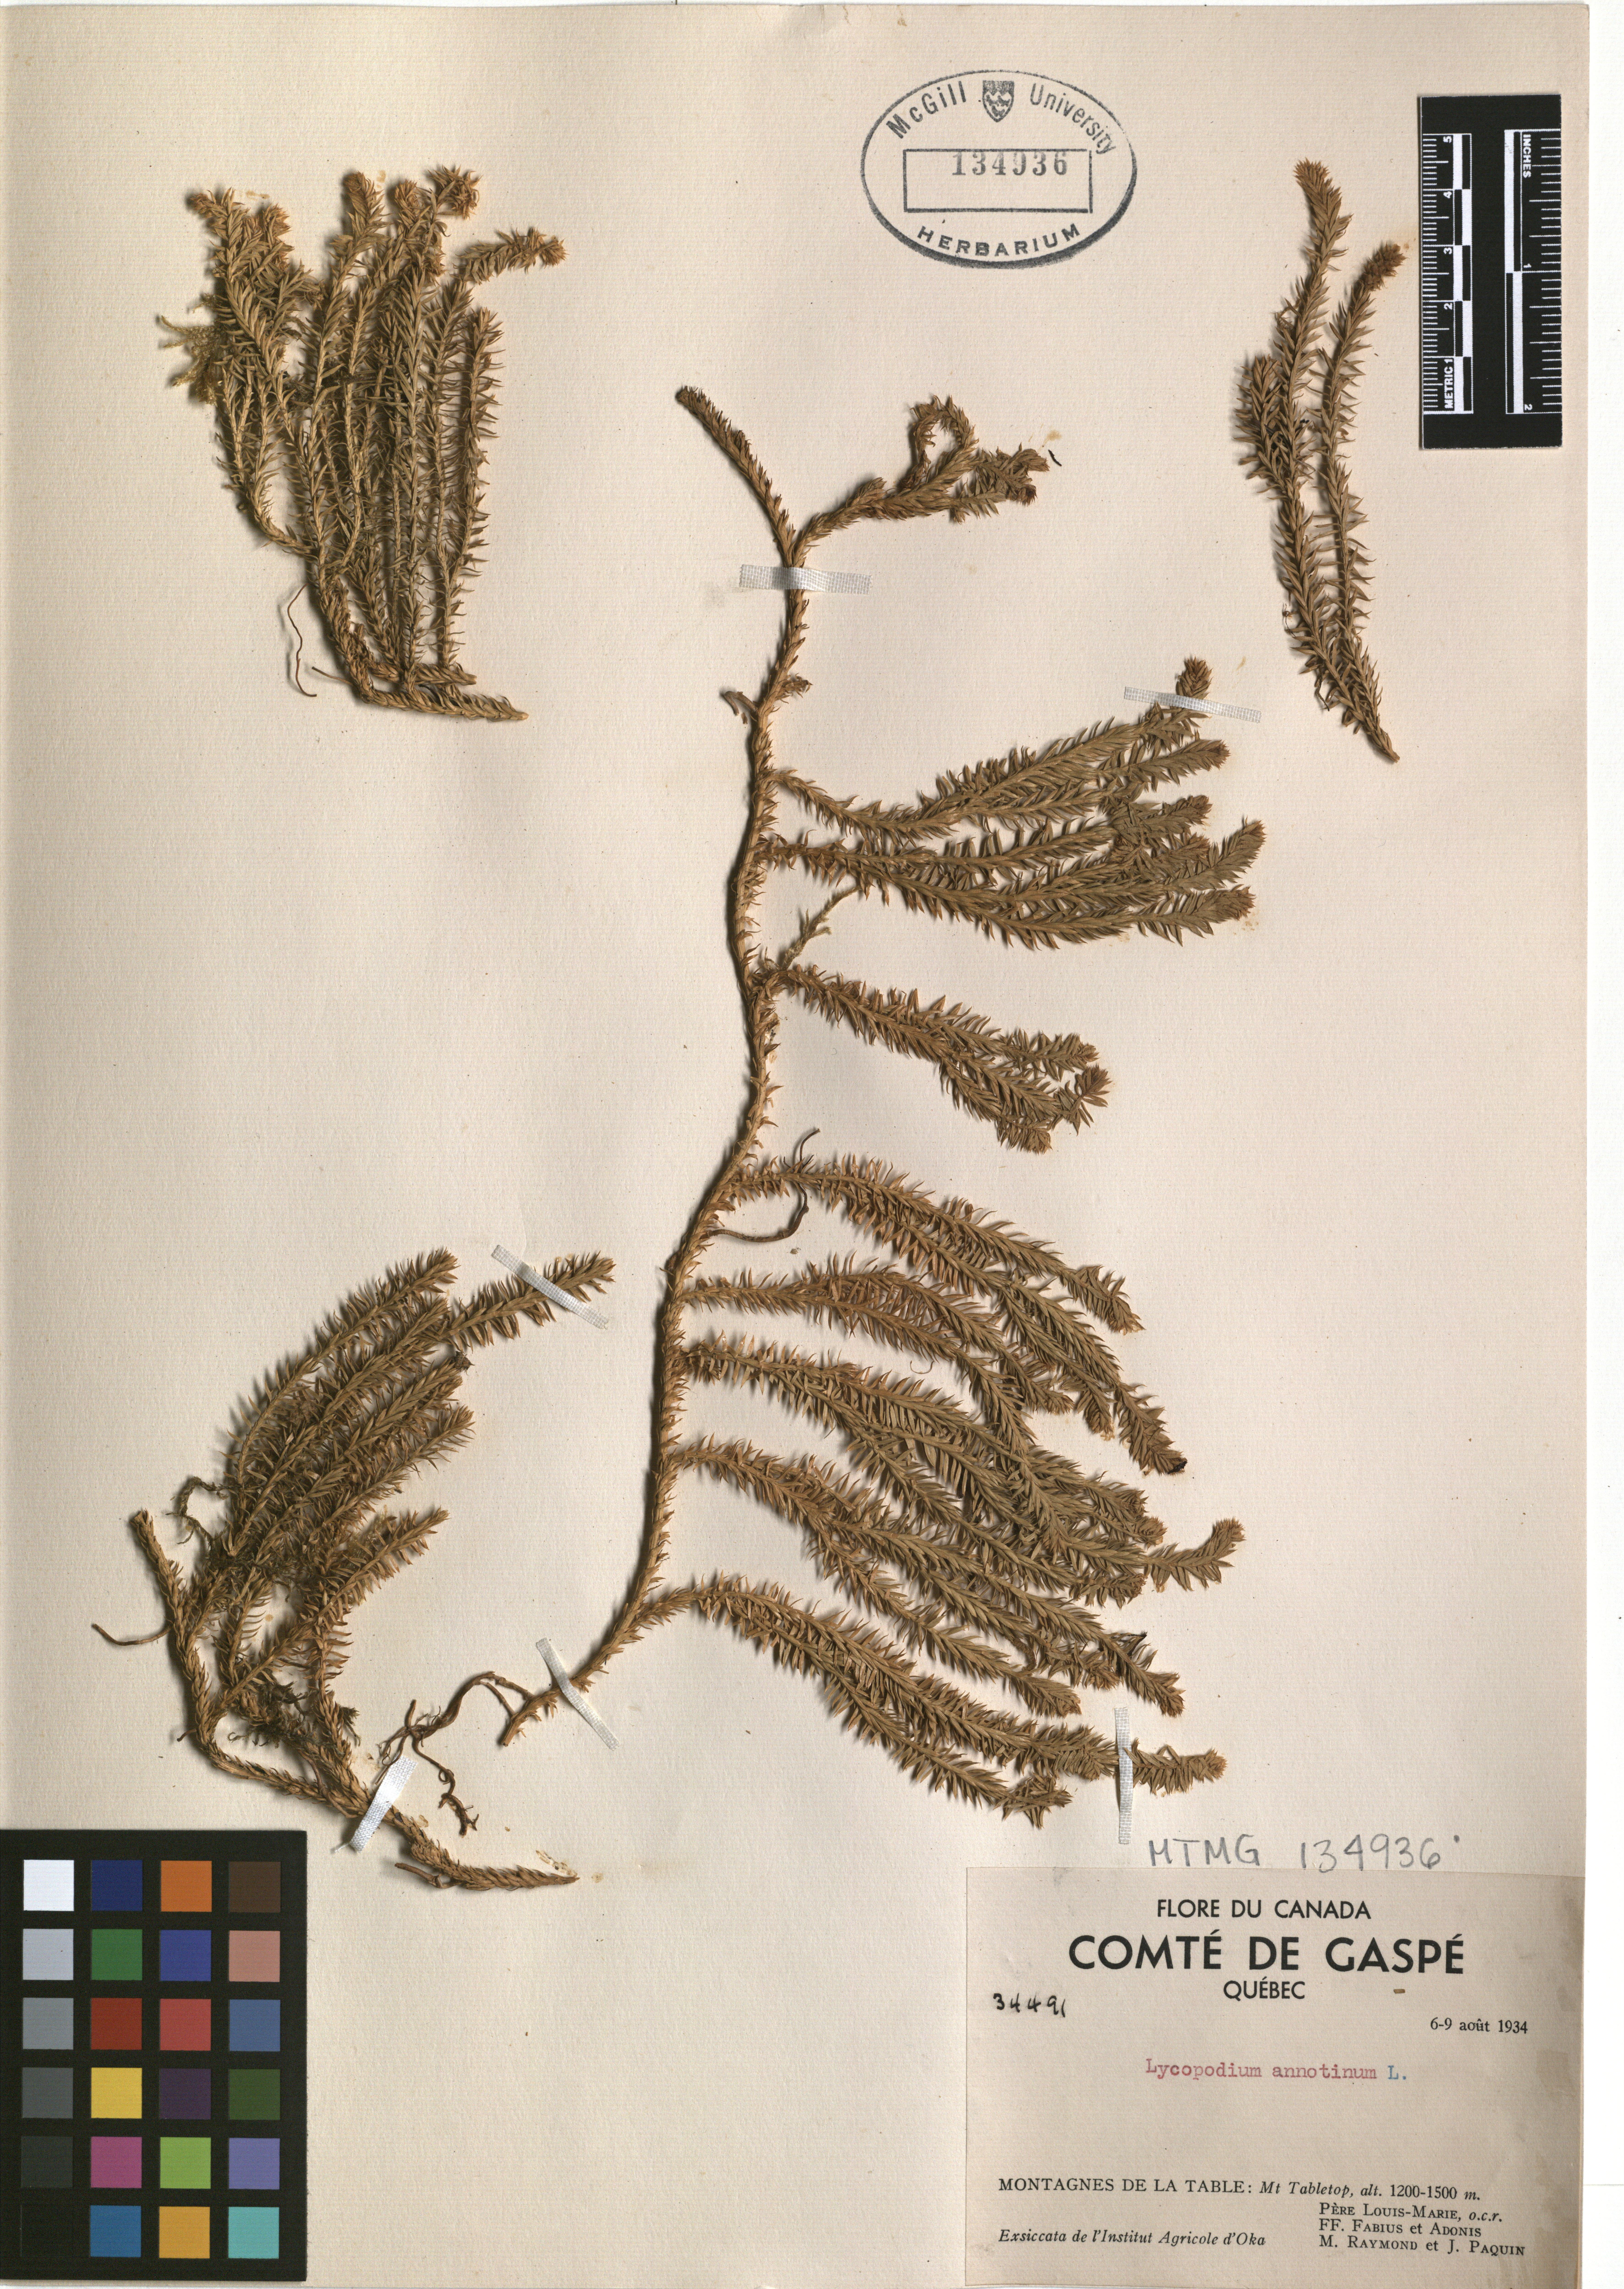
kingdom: Plantae
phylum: Tracheophyta
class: Lycopodiopsida
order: Lycopodiales
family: Lycopodiaceae
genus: Spinulum
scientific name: Spinulum annotinum
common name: Interrupted club-moss
